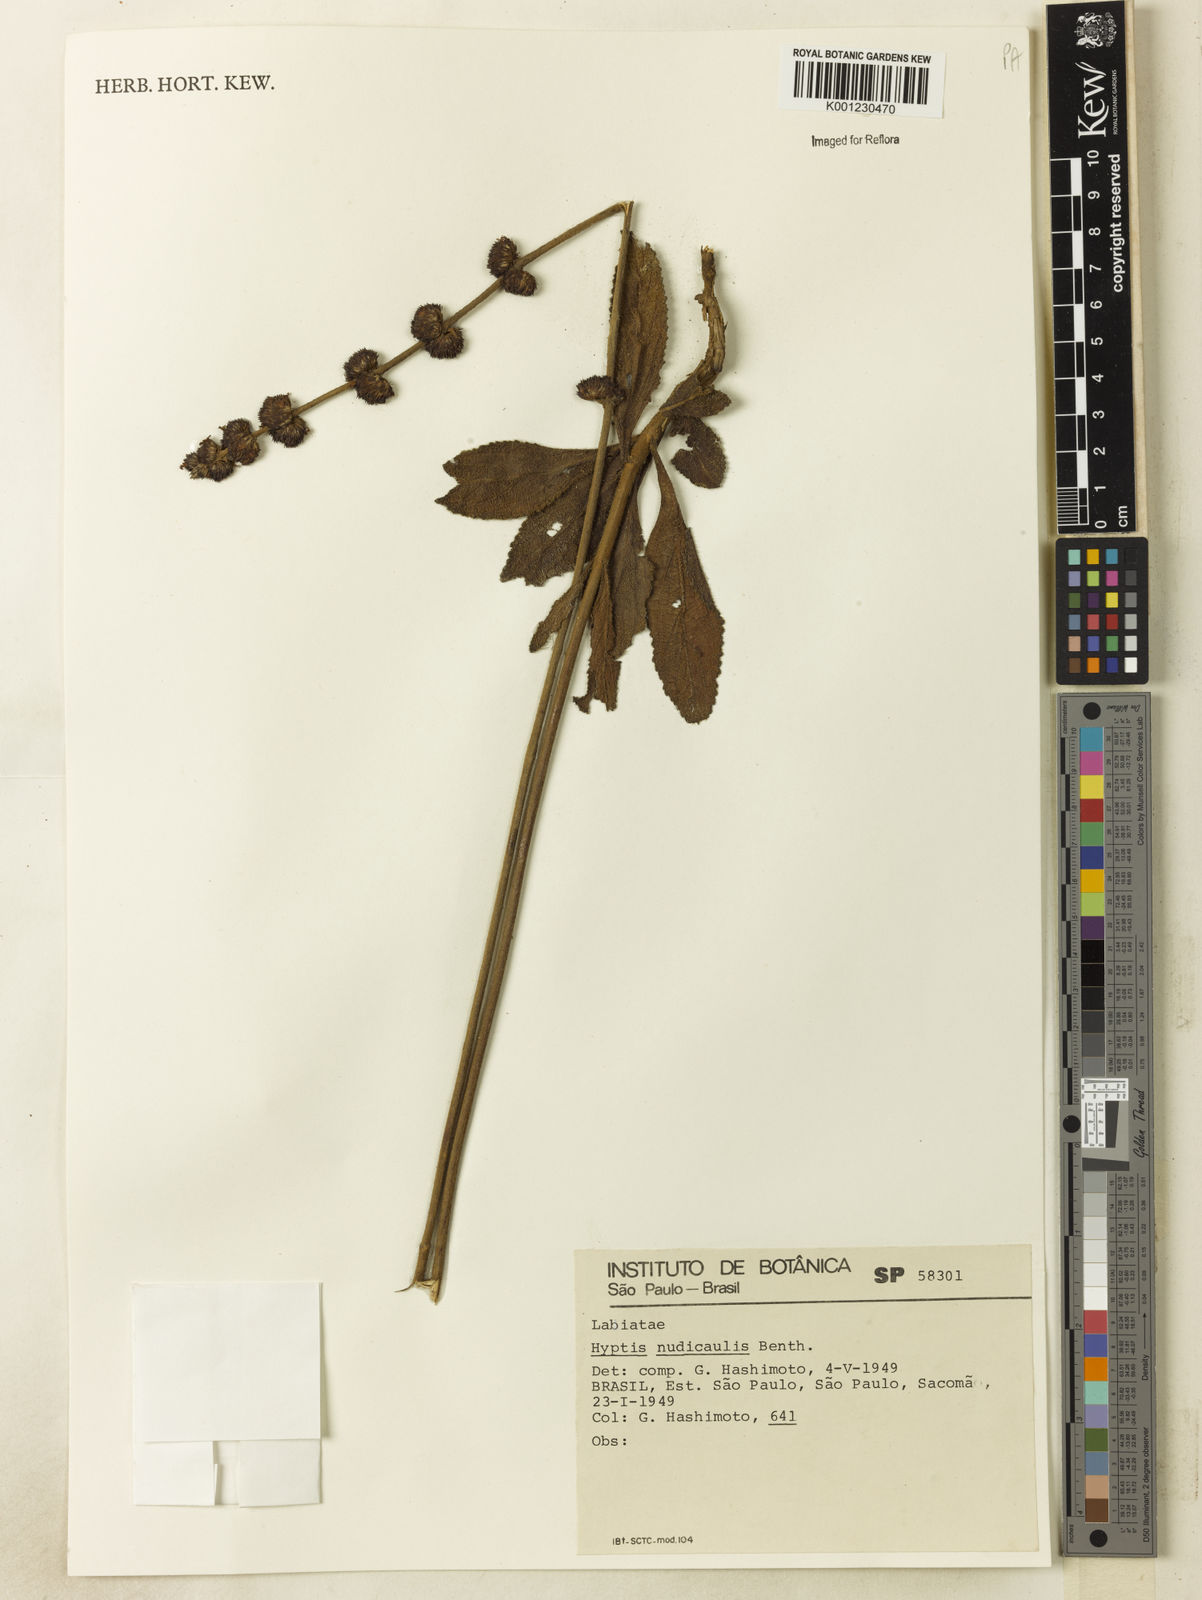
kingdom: Plantae
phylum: Tracheophyta
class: Magnoliopsida
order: Lamiales
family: Lamiaceae
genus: Hyptis
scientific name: Hyptis nudicaulis
